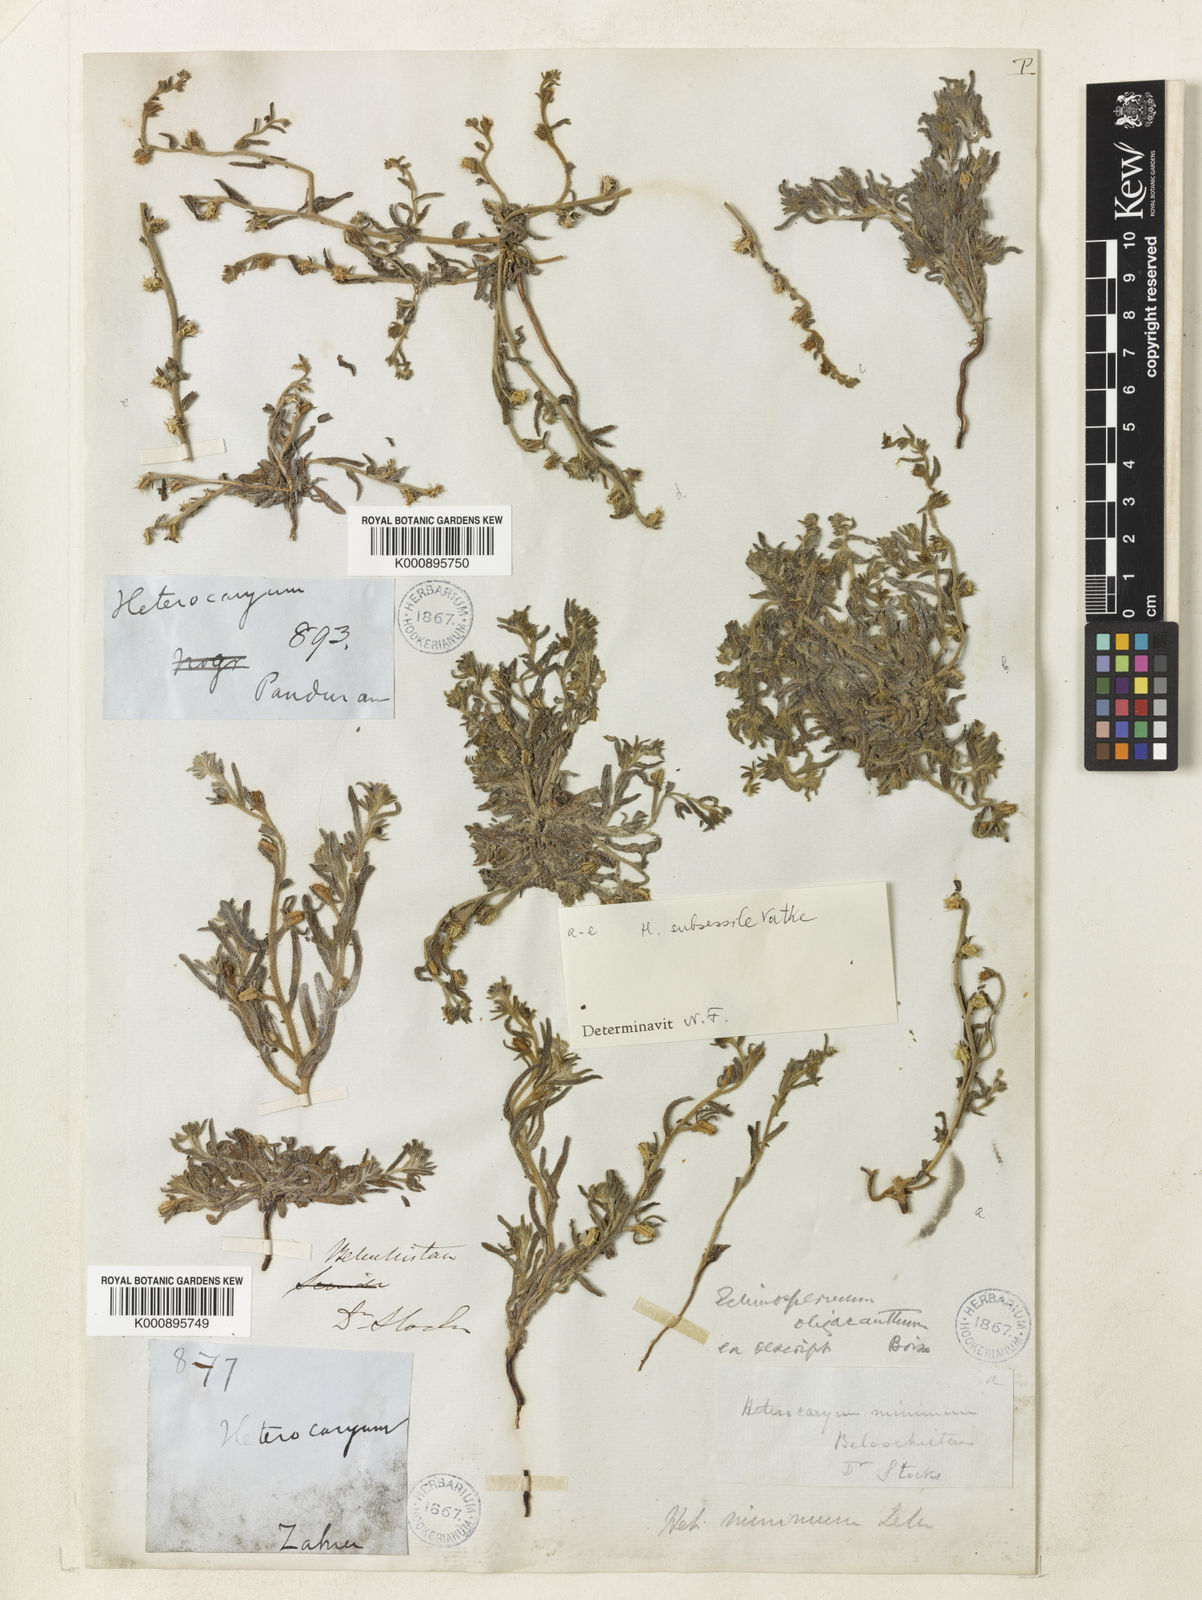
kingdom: Plantae
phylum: Tracheophyta
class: Magnoliopsida
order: Boraginales
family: Boraginaceae
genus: Lappula
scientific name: Lappula
